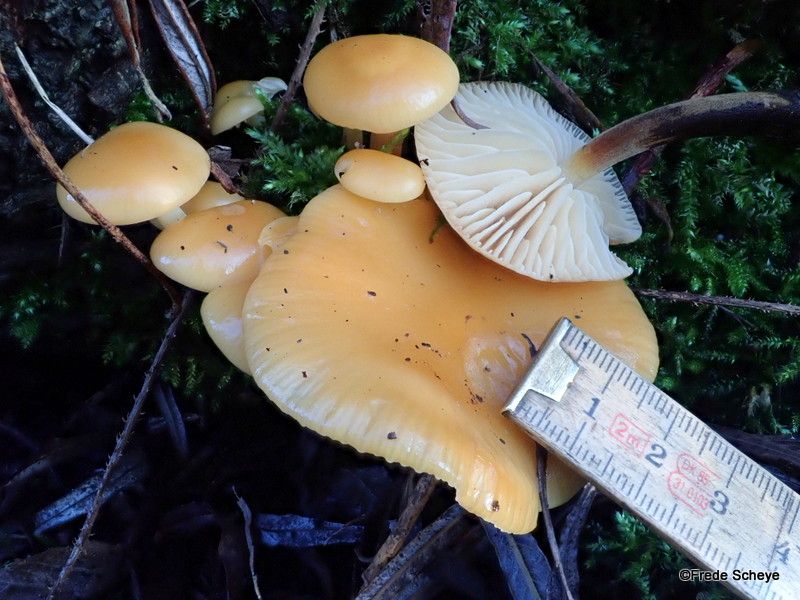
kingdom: Fungi
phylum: Basidiomycota
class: Agaricomycetes
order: Agaricales
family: Physalacriaceae
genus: Flammulina
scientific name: Flammulina velutipes
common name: gul fløjlsfod
